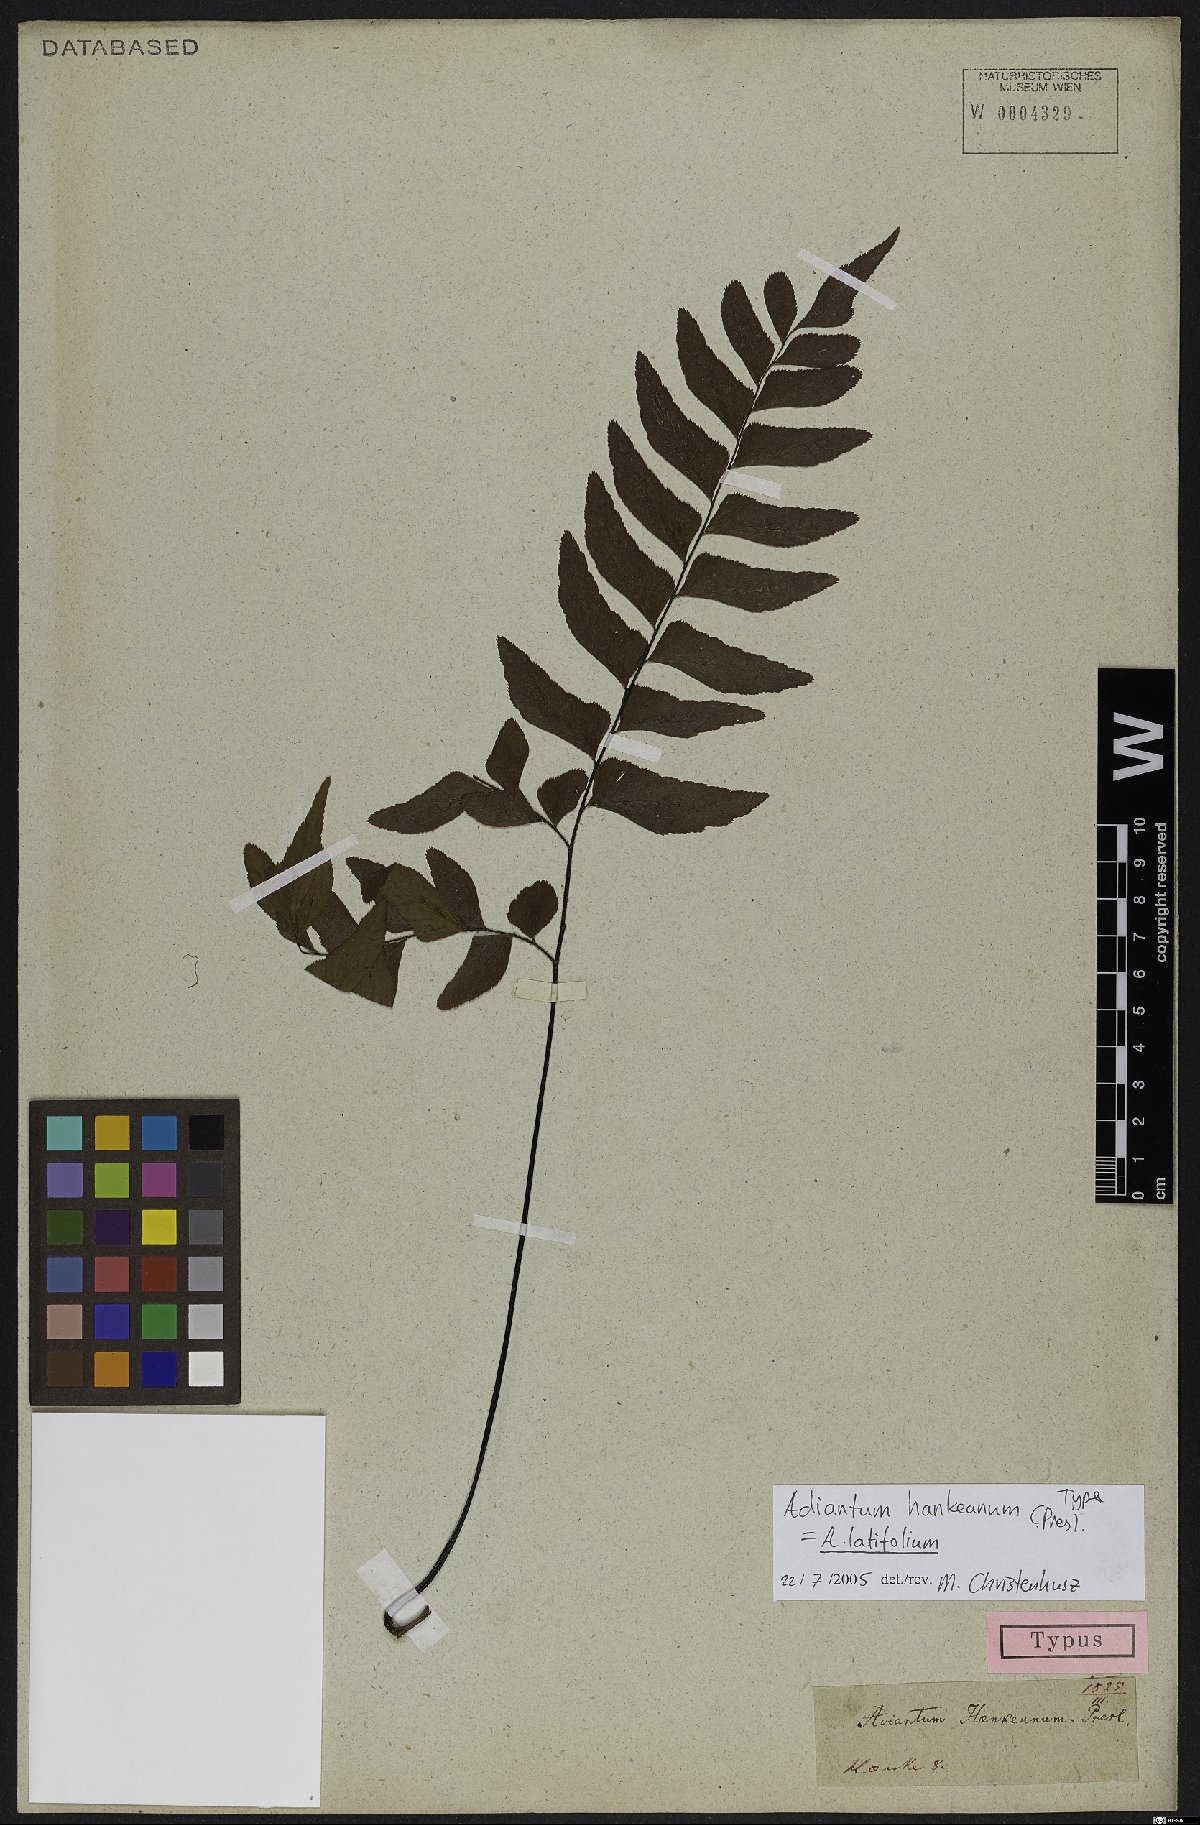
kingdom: Plantae
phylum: Tracheophyta
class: Polypodiopsida
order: Polypodiales
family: Pteridaceae
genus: Adiantum
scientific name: Adiantum latifolium
